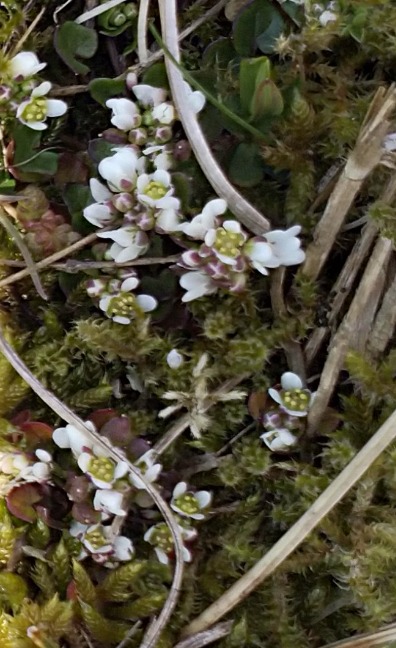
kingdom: Plantae
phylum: Tracheophyta
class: Magnoliopsida
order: Brassicales
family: Brassicaceae
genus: Draba
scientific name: Draba verna
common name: Vår-gæslingeblomst
